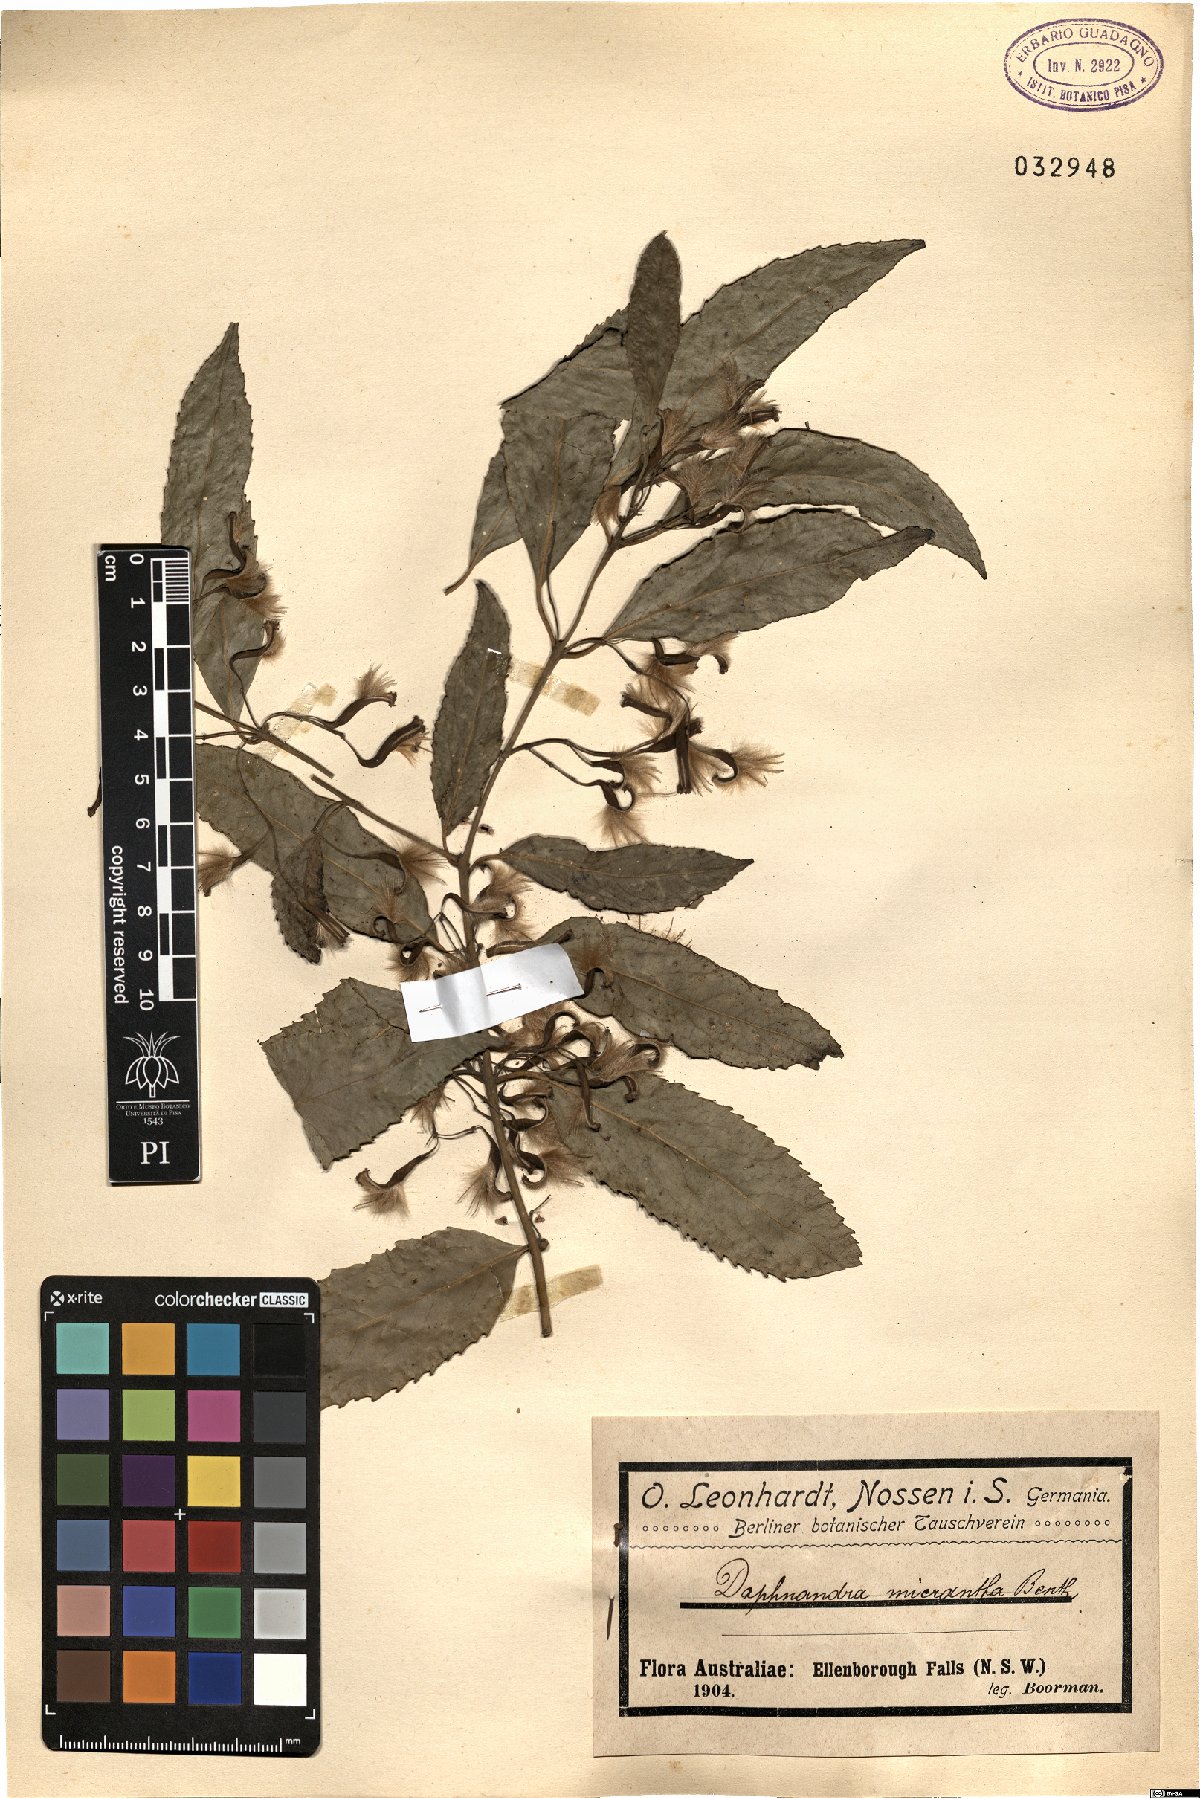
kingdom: Plantae
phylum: Tracheophyta
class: Magnoliopsida
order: Laurales
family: Atherospermataceae
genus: Daphnandra
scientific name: Daphnandra micrantha
